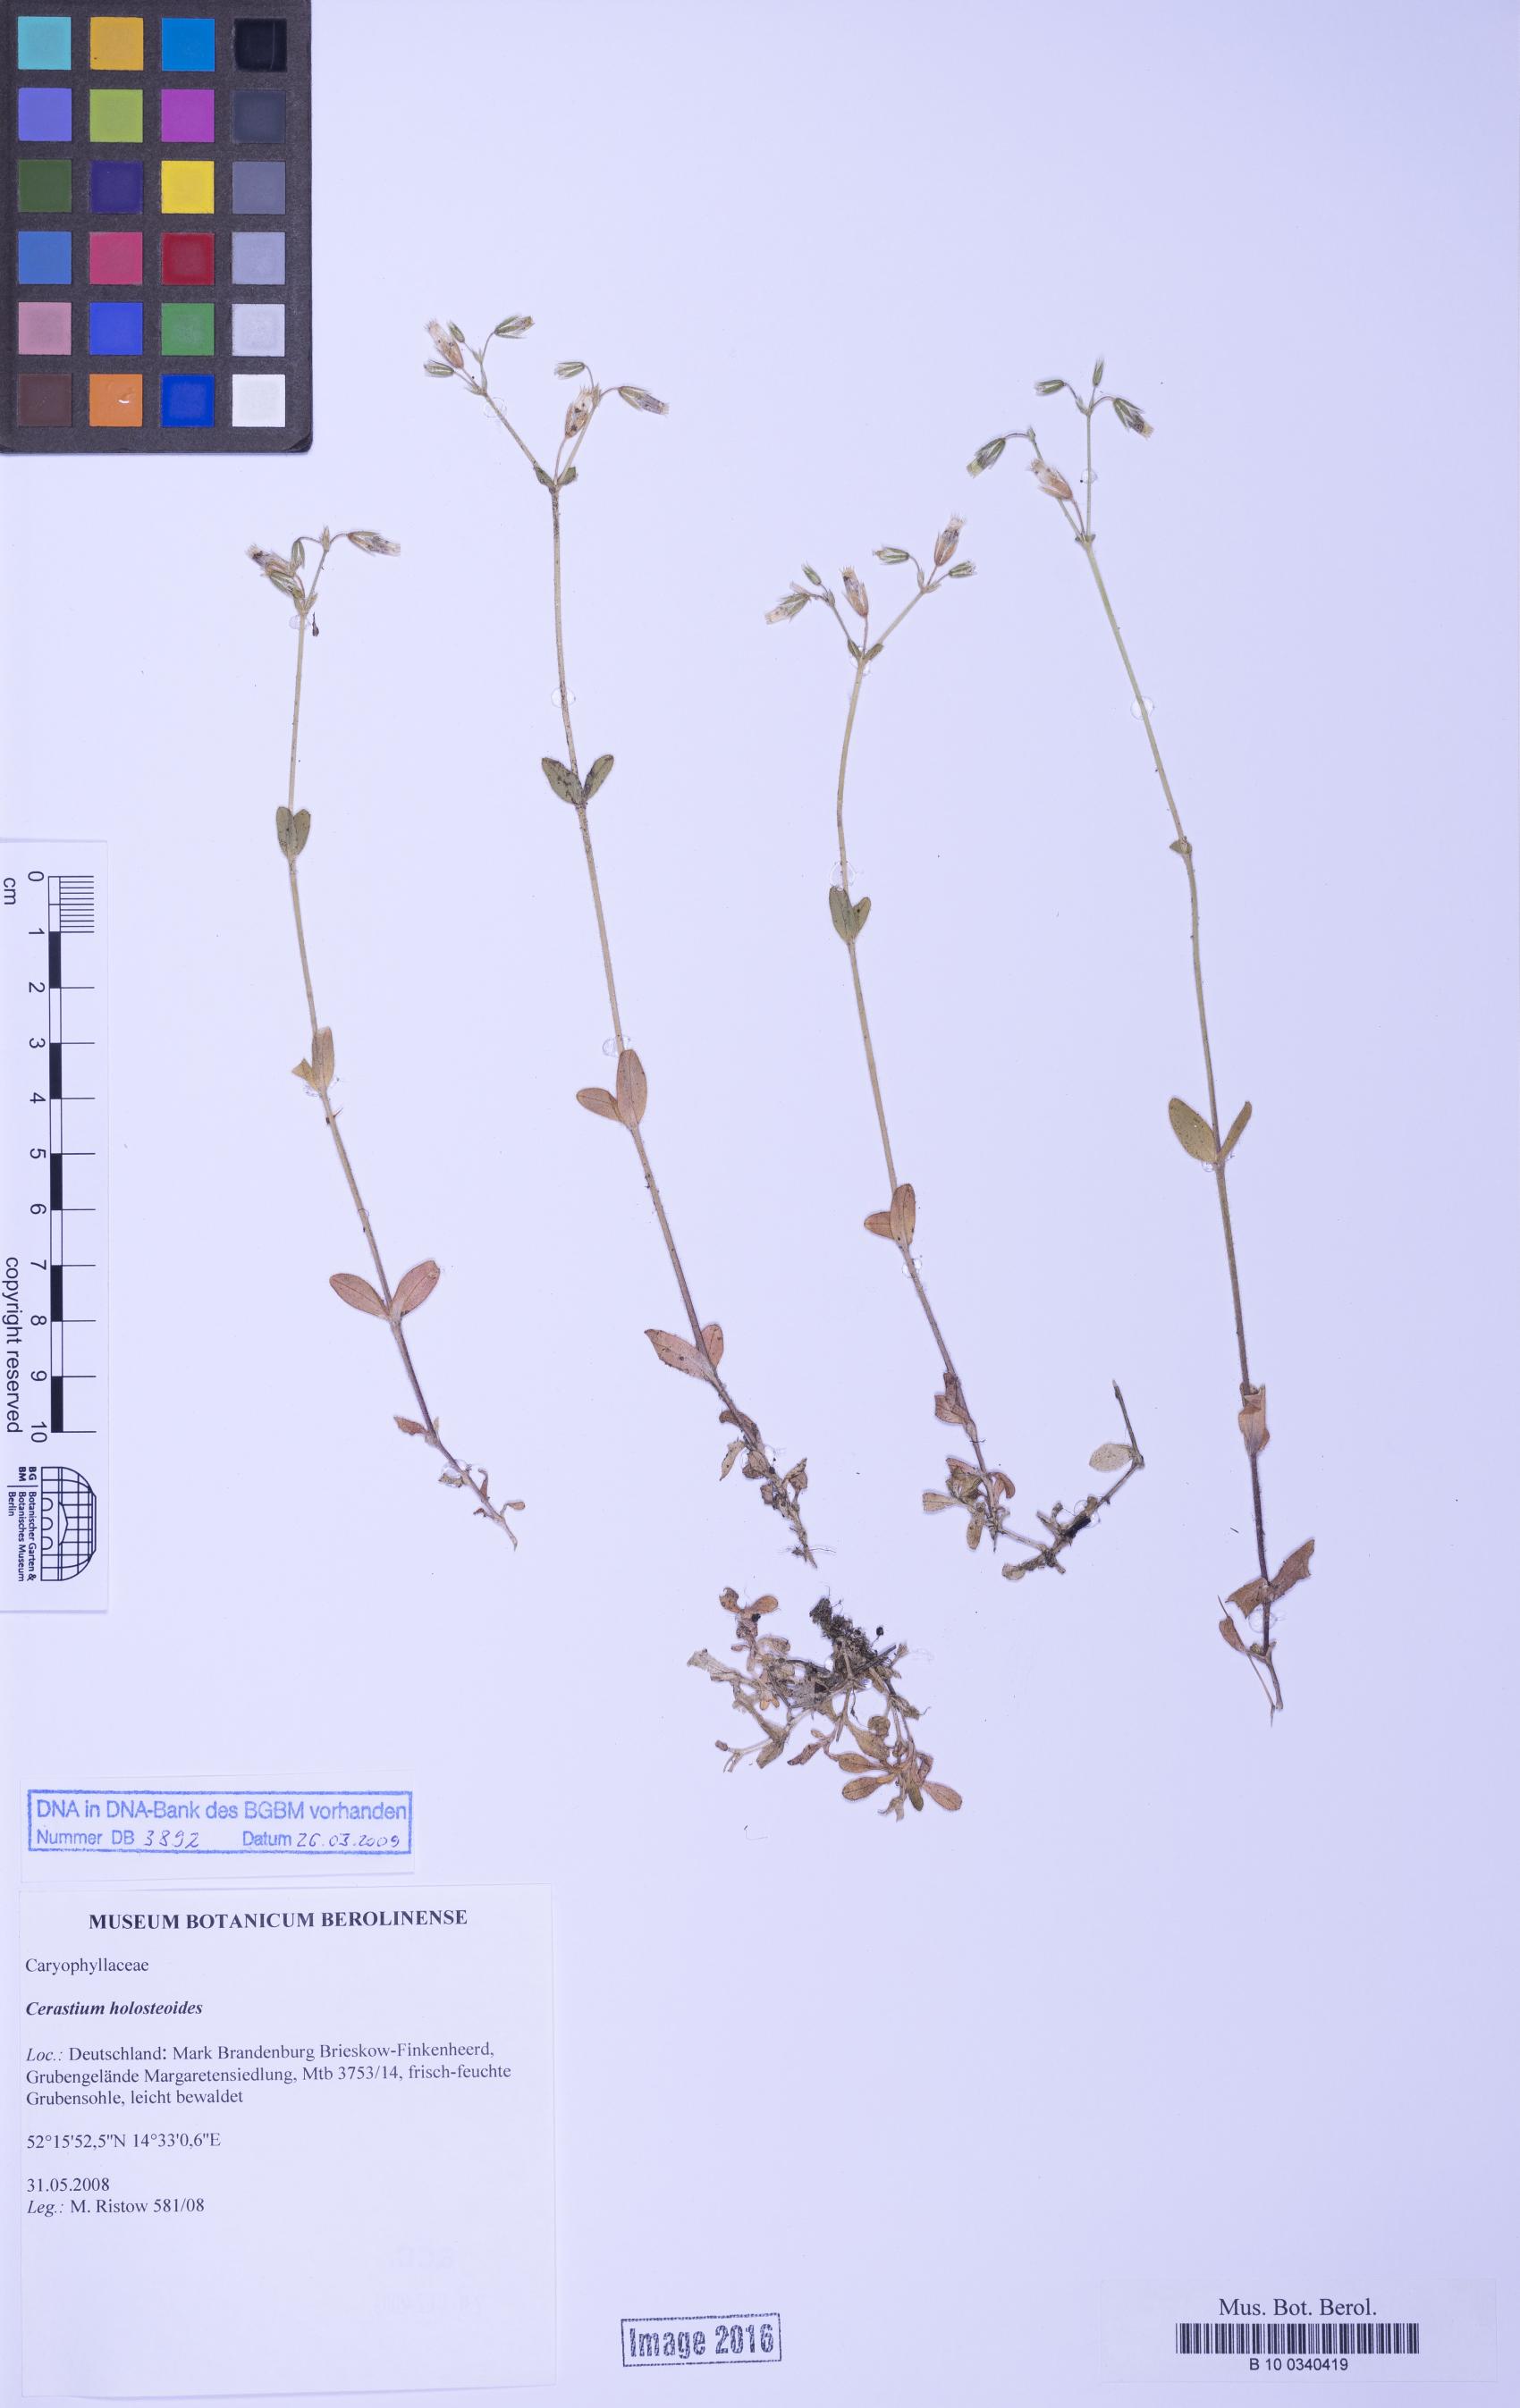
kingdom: Plantae
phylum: Tracheophyta
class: Magnoliopsida
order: Caryophyllales
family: Caryophyllaceae
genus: Cerastium
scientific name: Cerastium holosteoides
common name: Big chickweed
